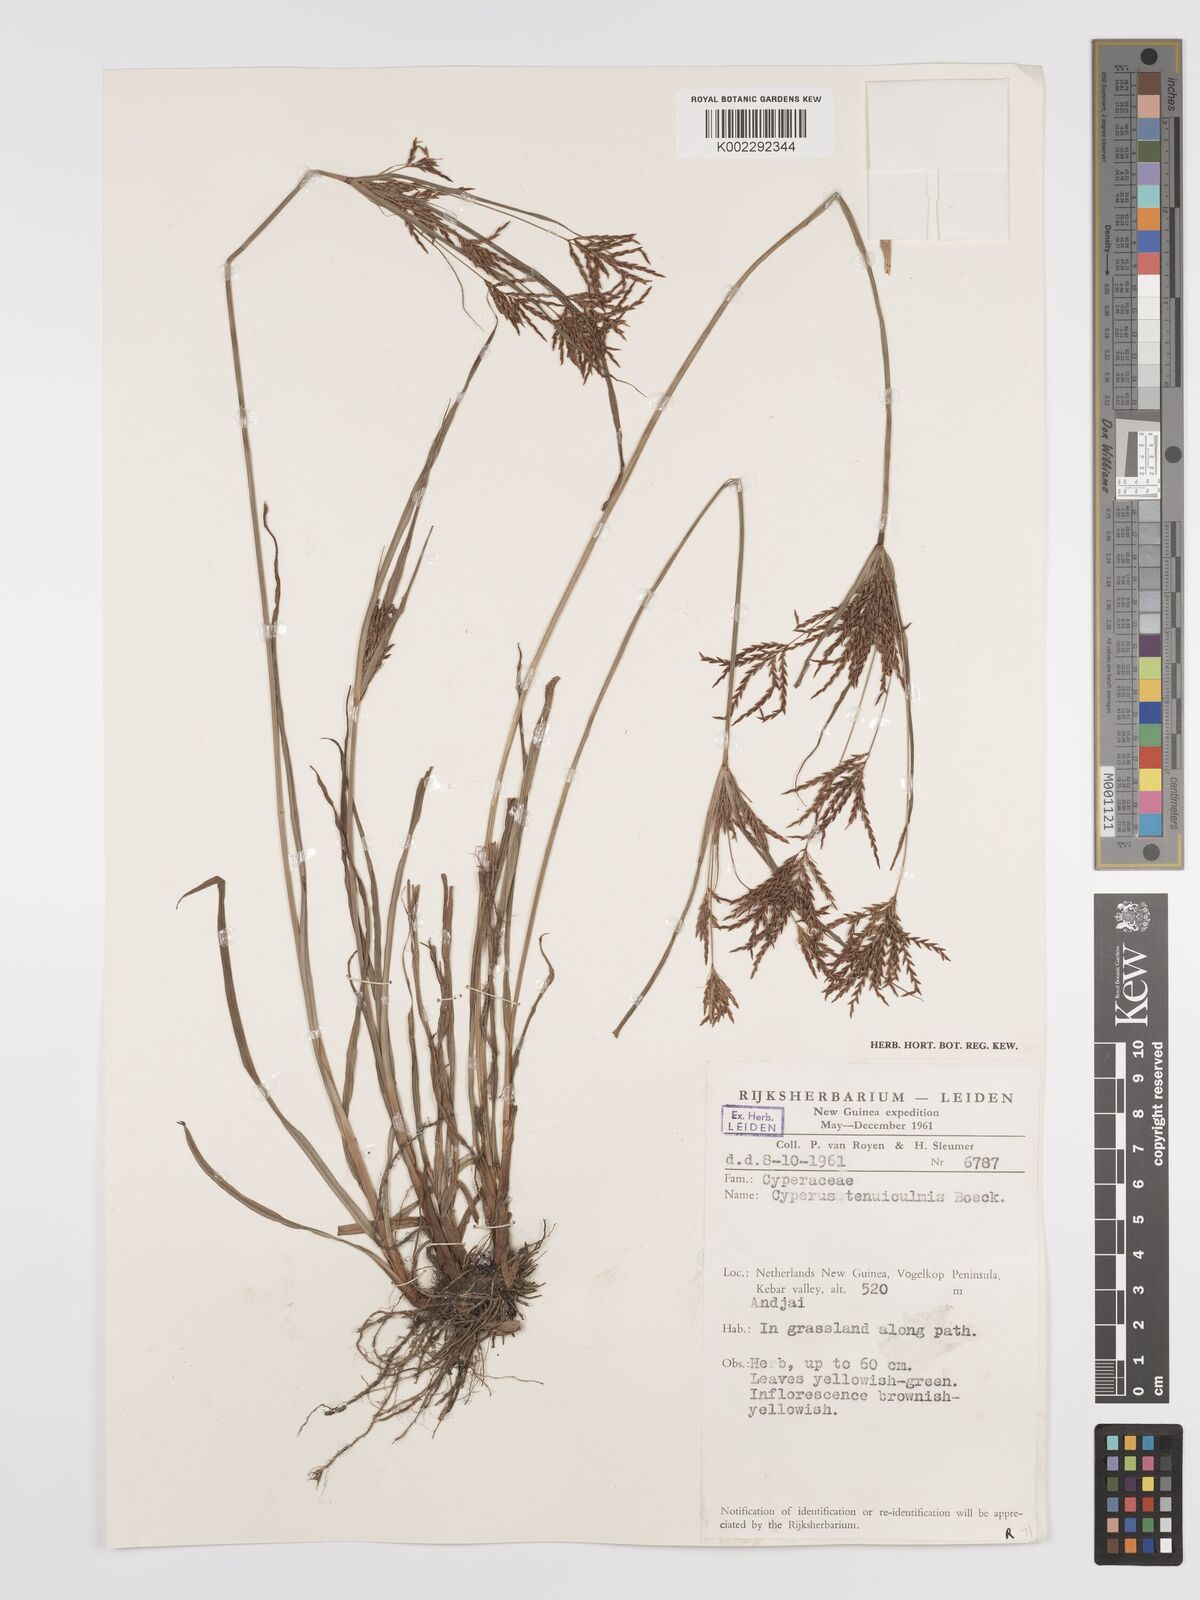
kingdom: Plantae
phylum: Tracheophyta
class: Liliopsida
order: Poales
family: Cyperaceae
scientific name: Cyperaceae
